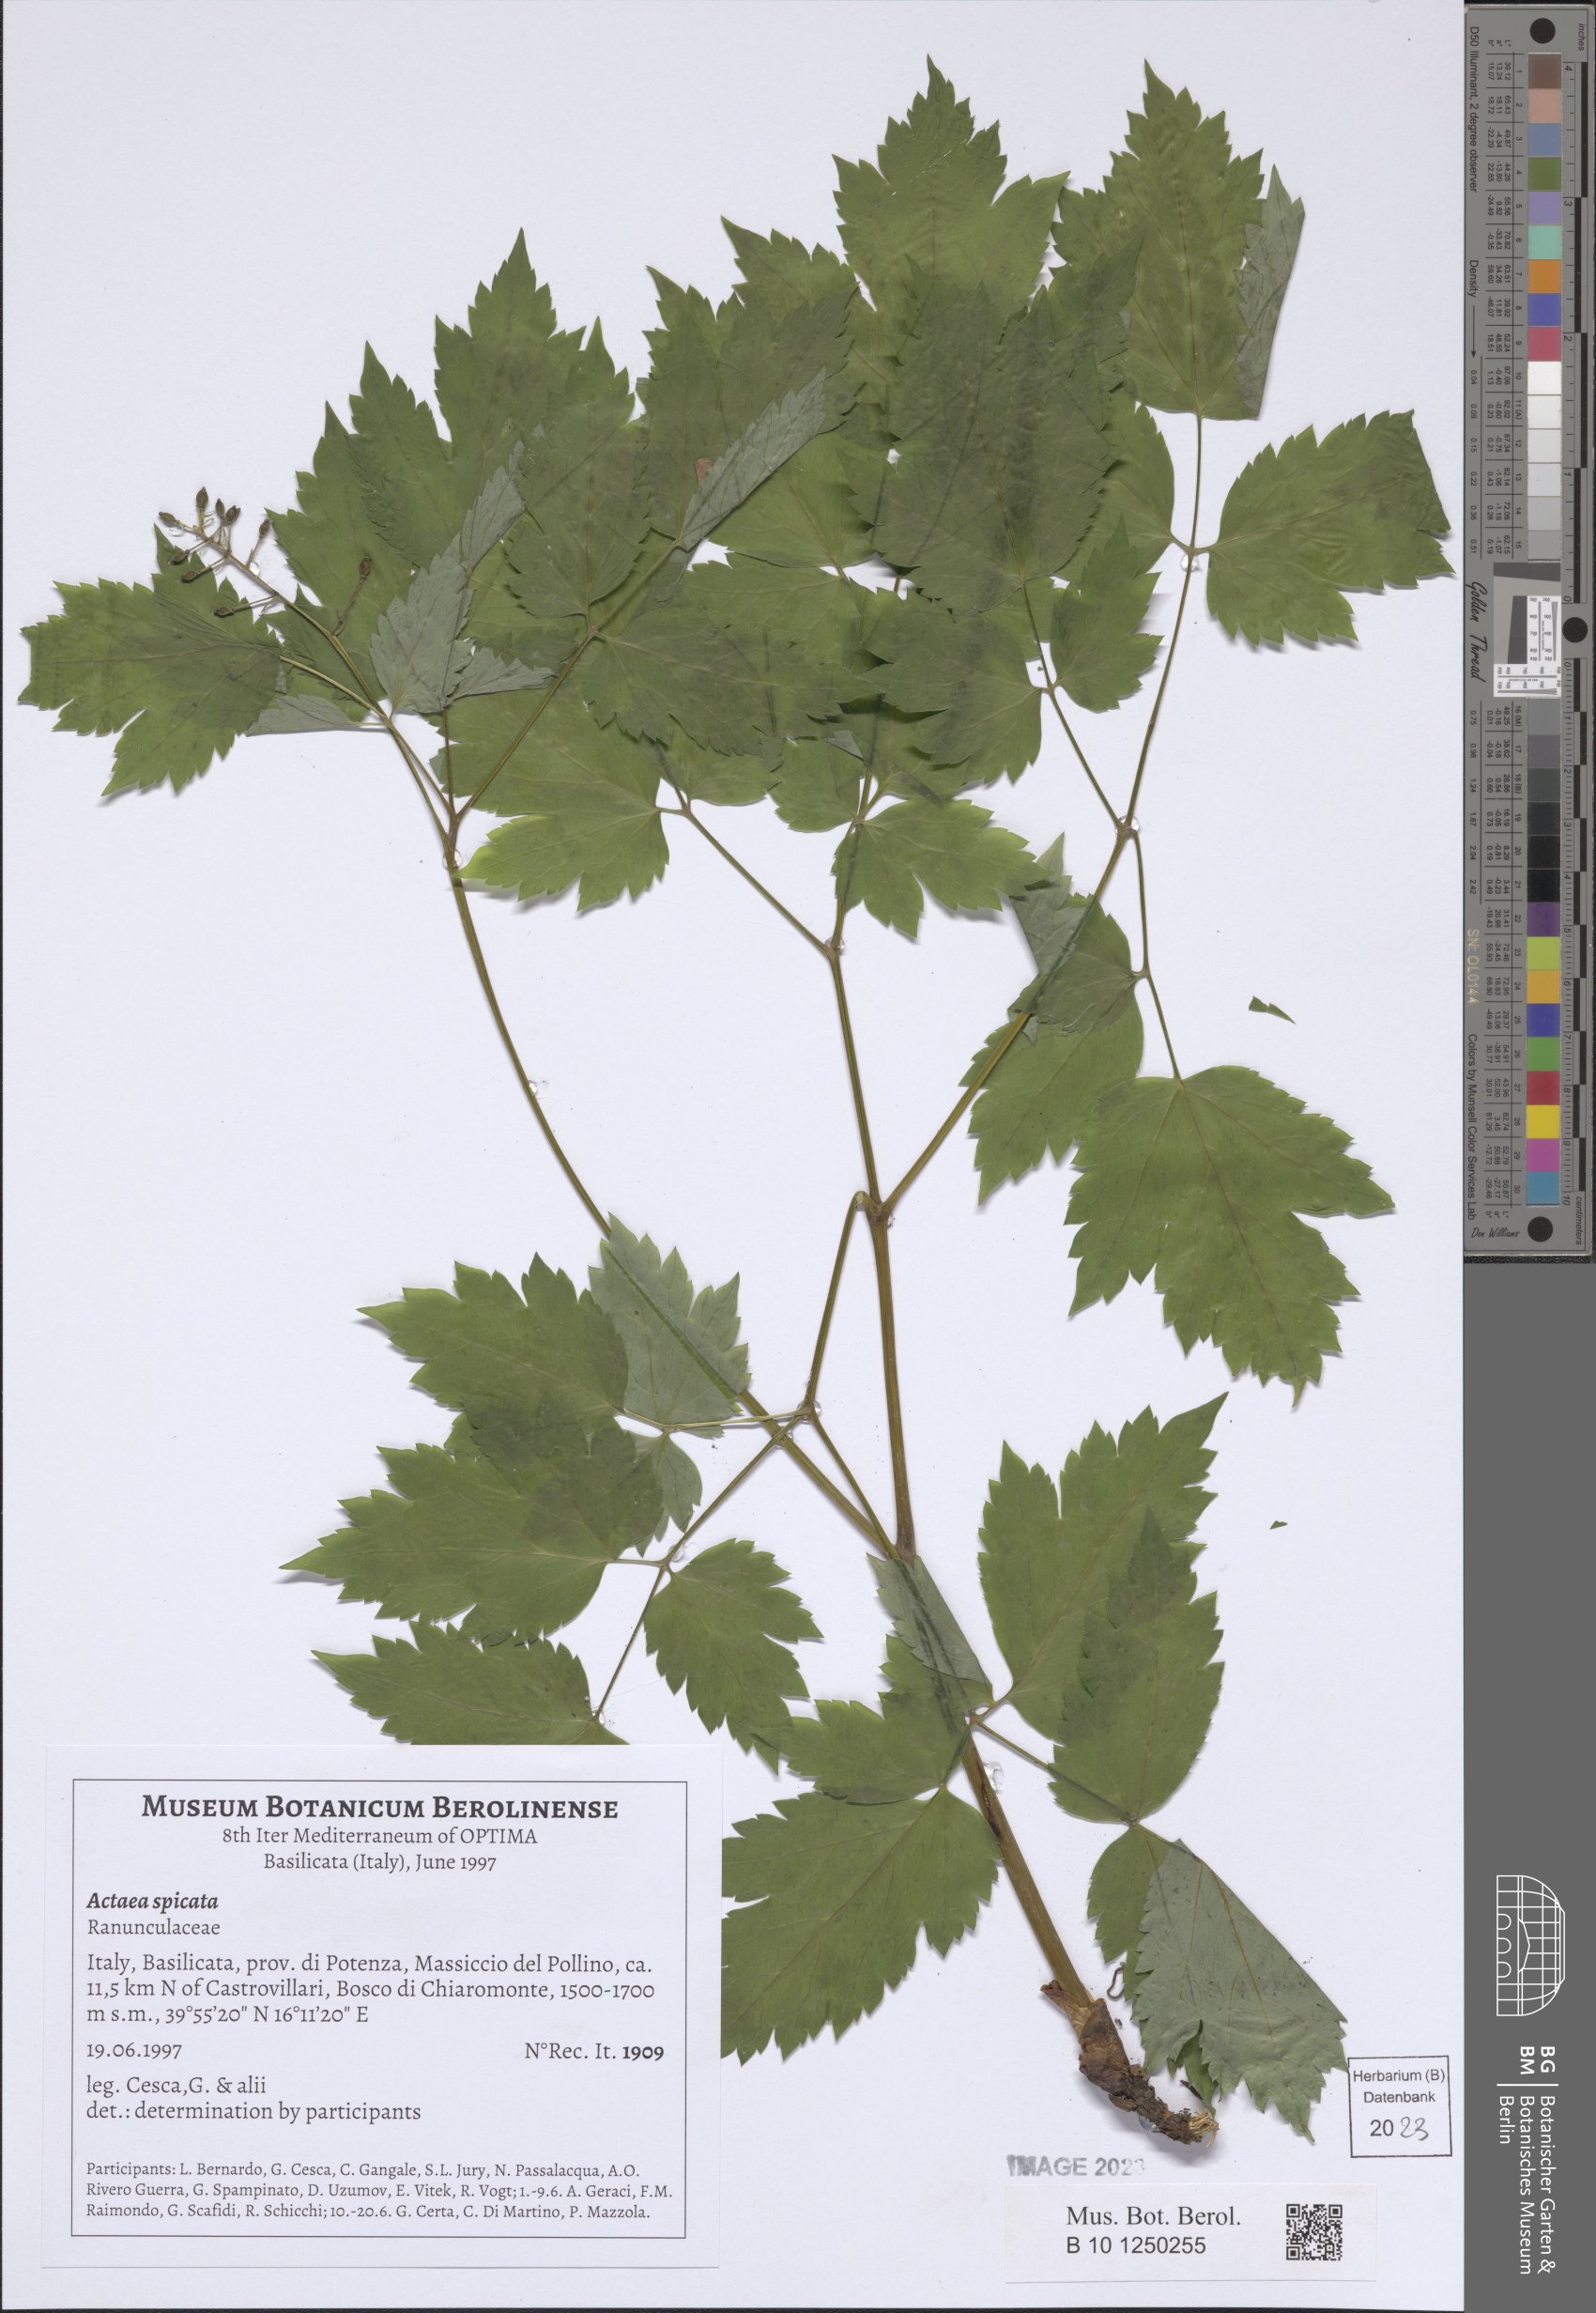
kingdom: Plantae
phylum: Tracheophyta
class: Magnoliopsida
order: Ranunculales
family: Ranunculaceae
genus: Actaea
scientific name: Actaea spicata
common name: Baneberry
